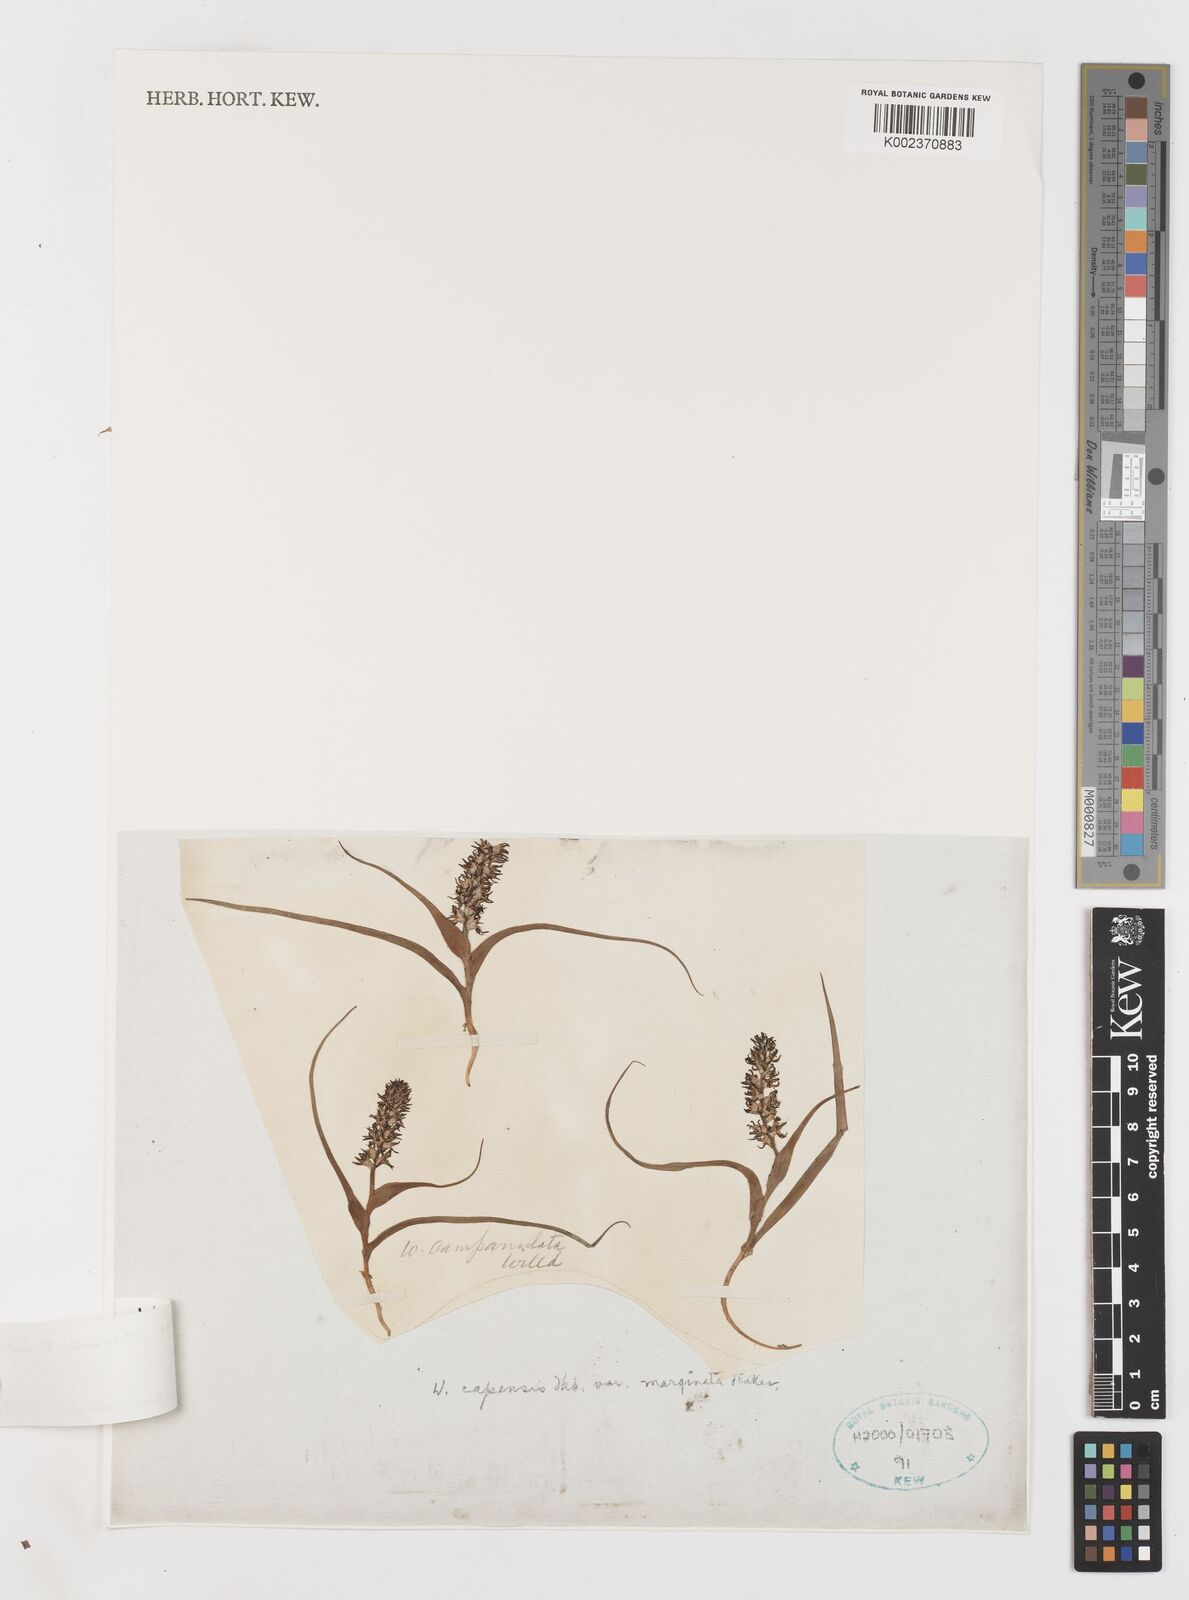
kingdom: Plantae
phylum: Tracheophyta
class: Liliopsida
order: Liliales
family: Colchicaceae
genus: Wurmbea
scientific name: Wurmbea hiemalis
